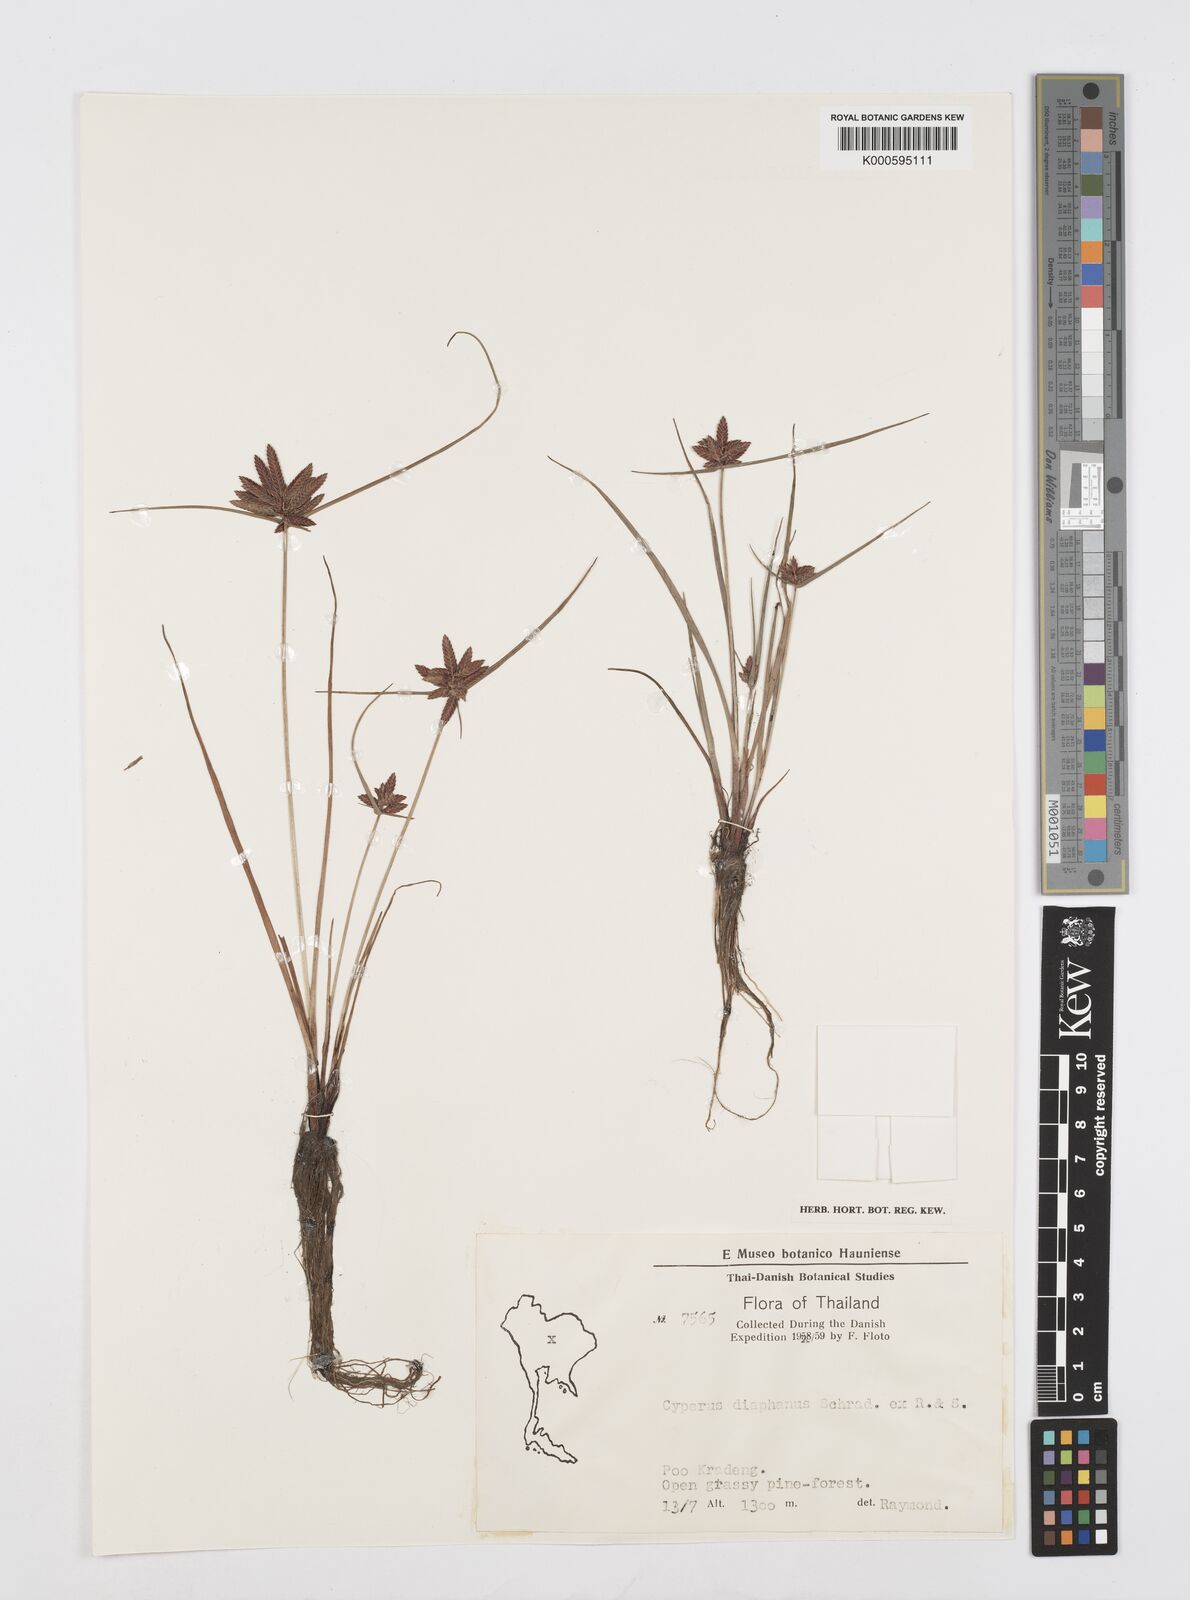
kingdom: Plantae
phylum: Tracheophyta
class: Liliopsida
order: Poales
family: Cyperaceae
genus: Cyperus
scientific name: Cyperus diaphanus
